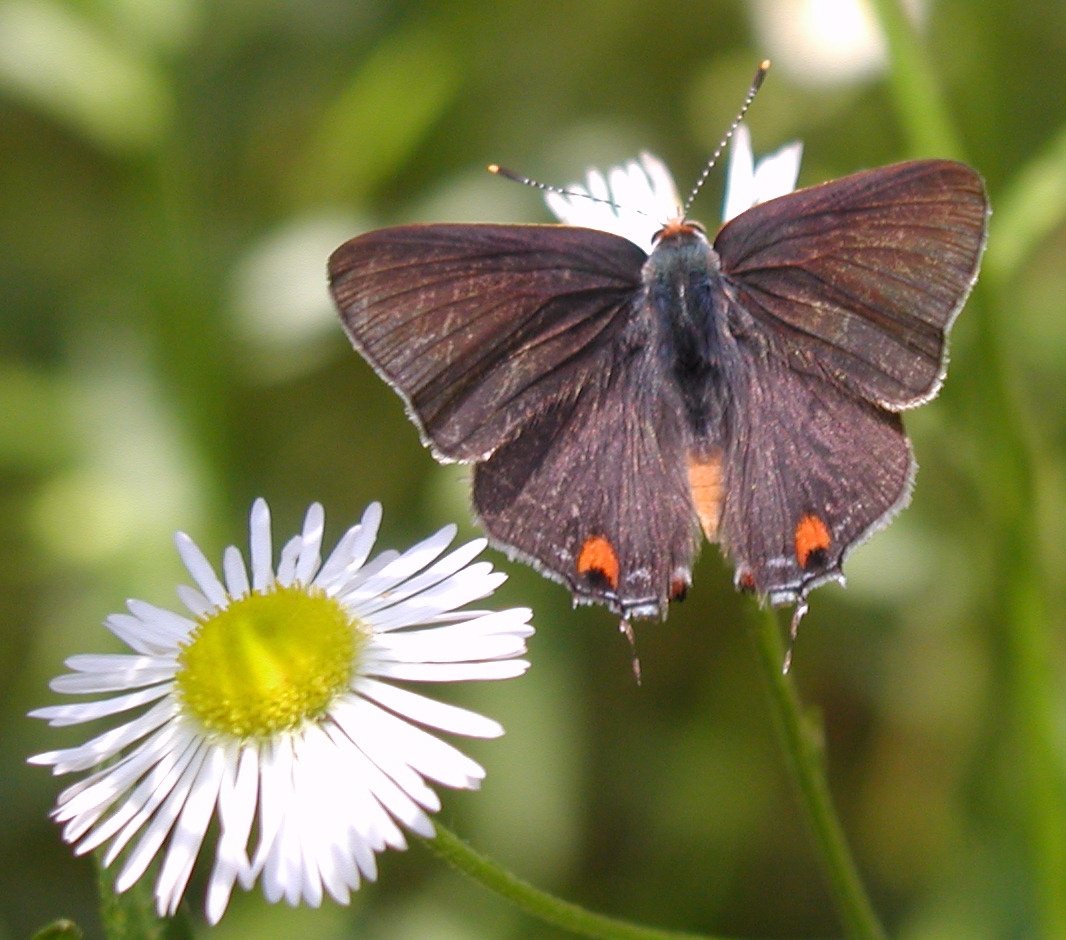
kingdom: Animalia
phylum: Arthropoda
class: Insecta
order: Lepidoptera
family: Lycaenidae
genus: Strymon
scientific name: Strymon melinus
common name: Gray Hairstreak
